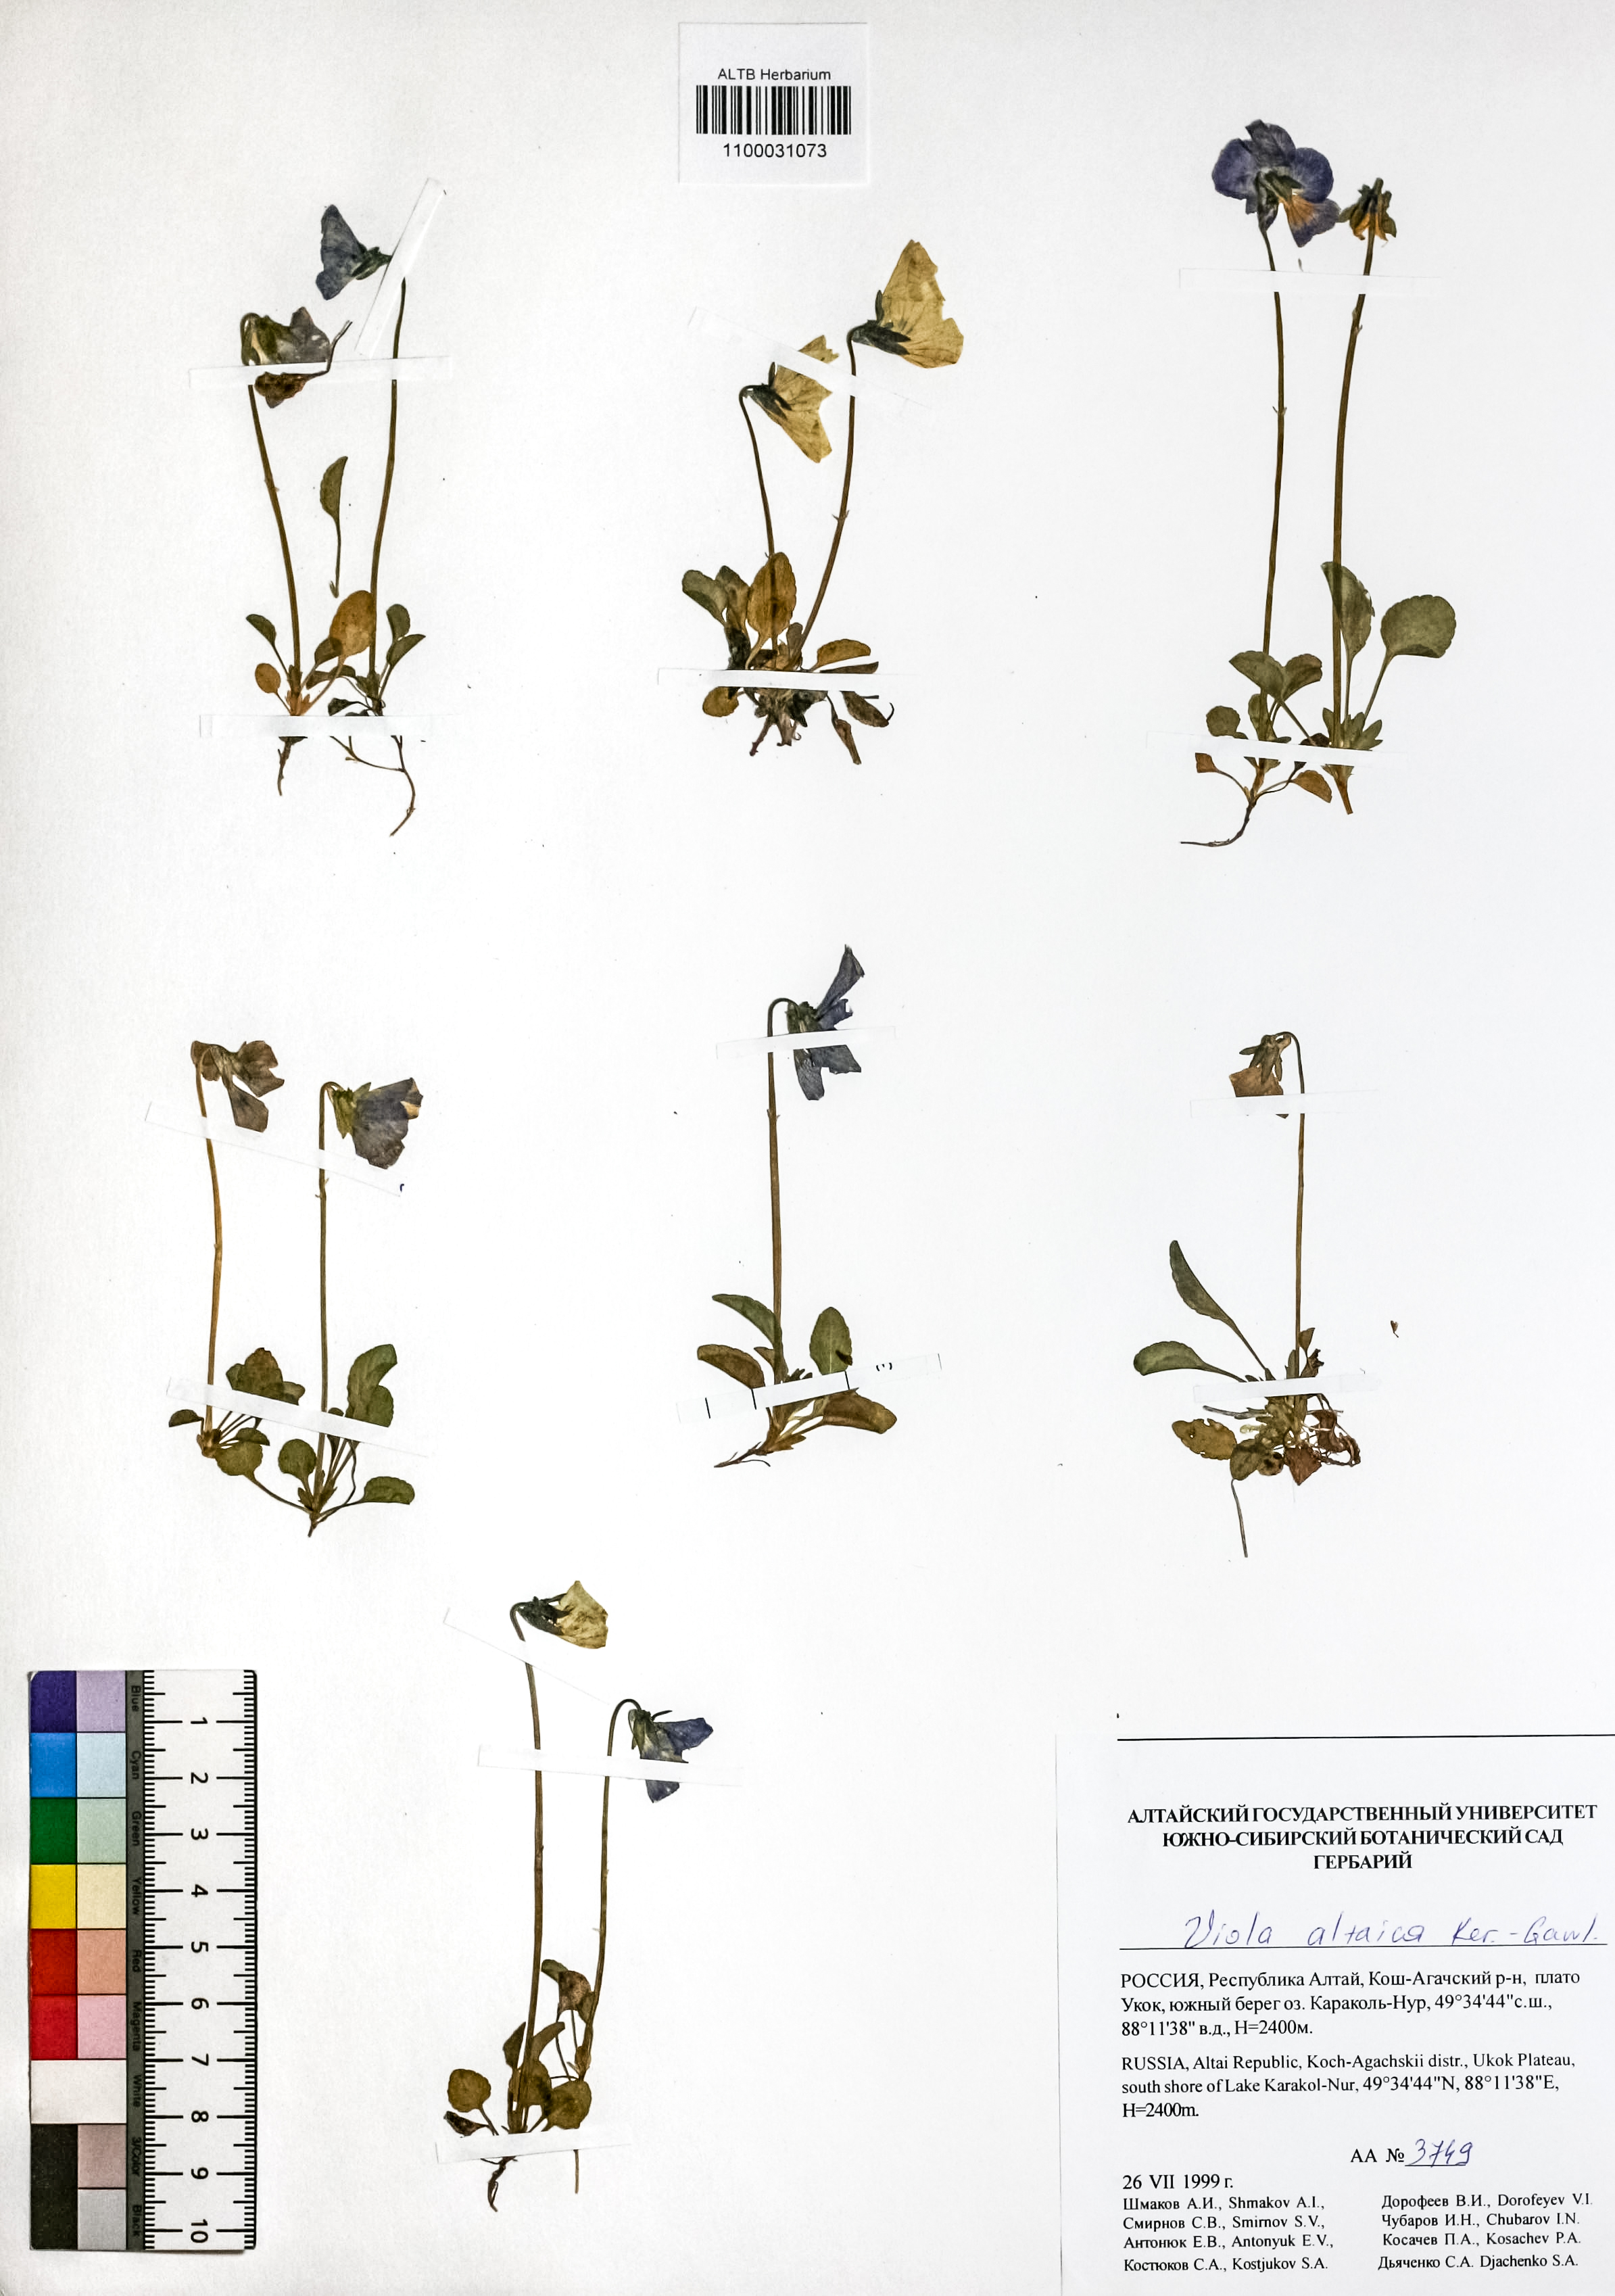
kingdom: Plantae
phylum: Tracheophyta
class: Magnoliopsida
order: Malpighiales
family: Violaceae
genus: Viola
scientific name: Viola altaica
